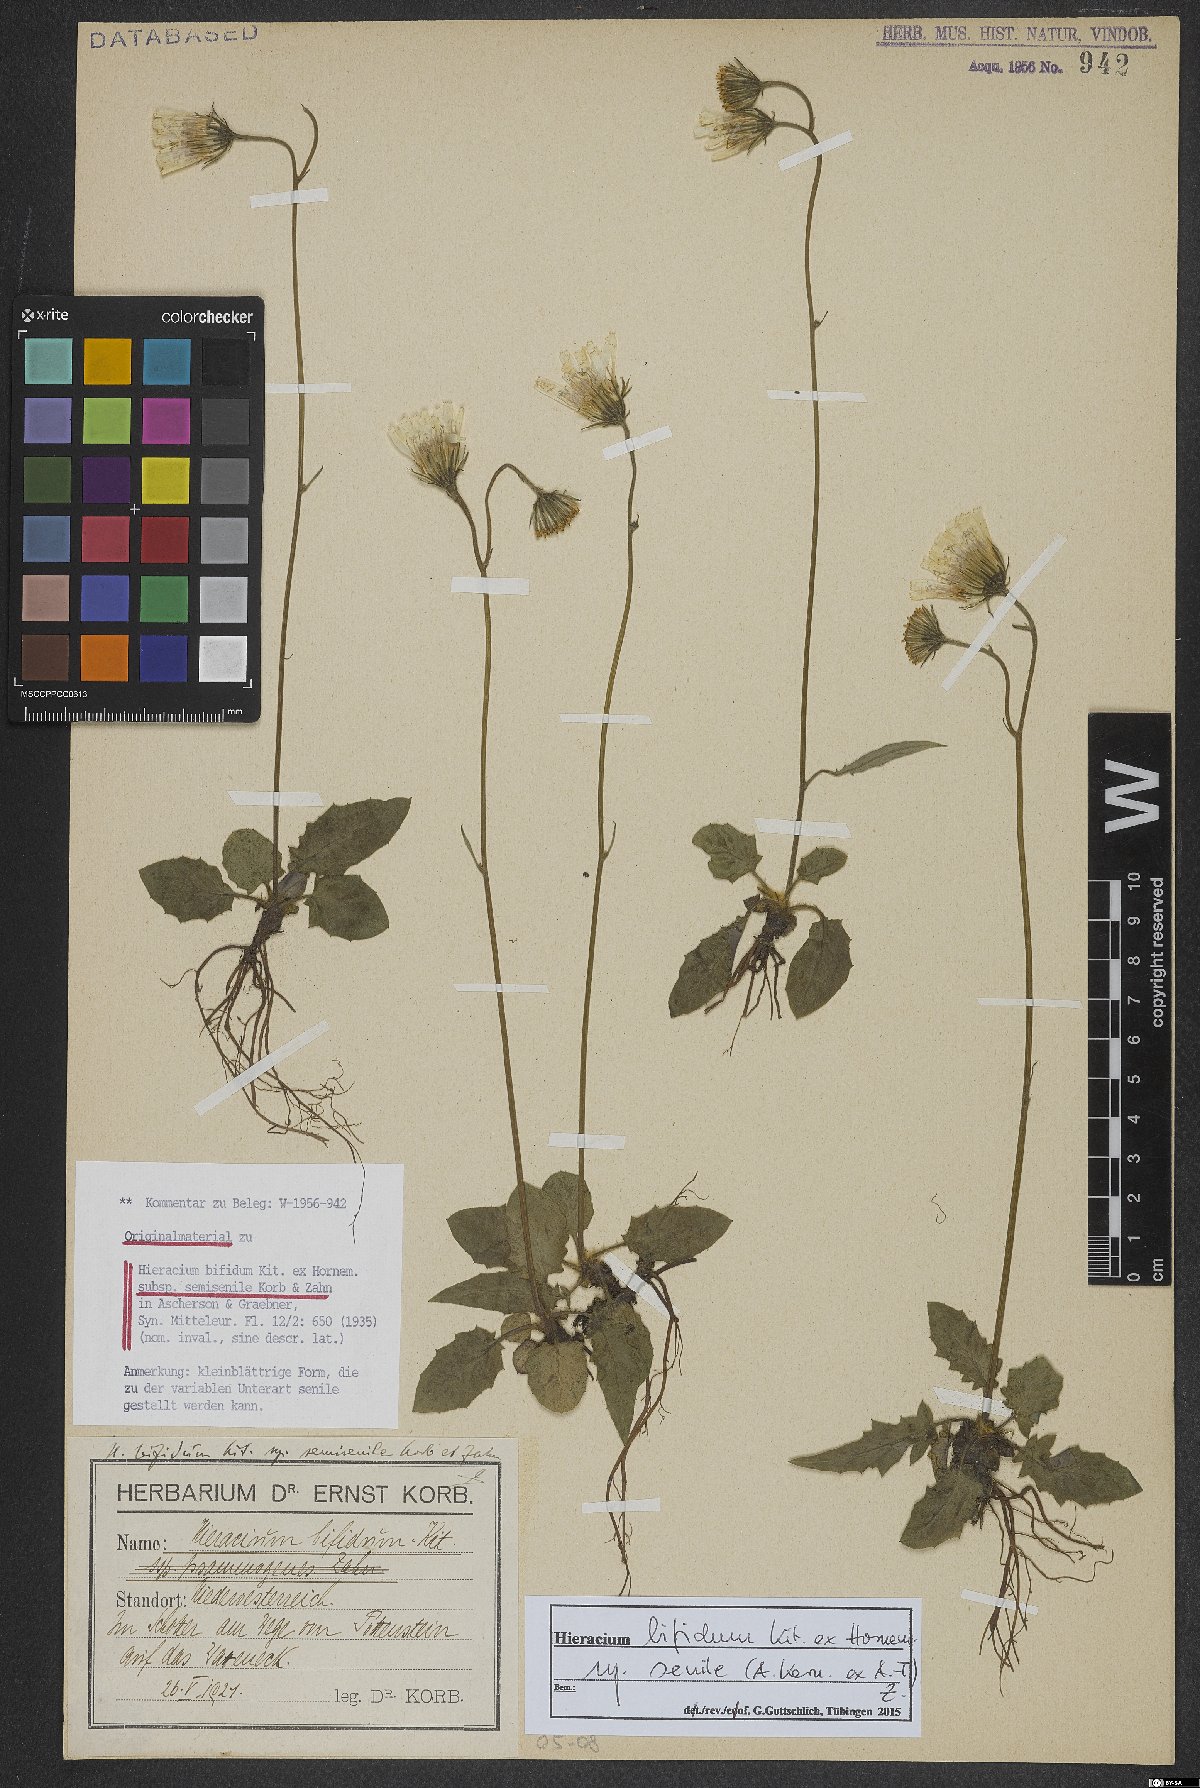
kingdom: Plantae
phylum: Tracheophyta
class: Magnoliopsida
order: Asterales
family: Asteraceae
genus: Hieracium
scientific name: Hieracium bifidum
